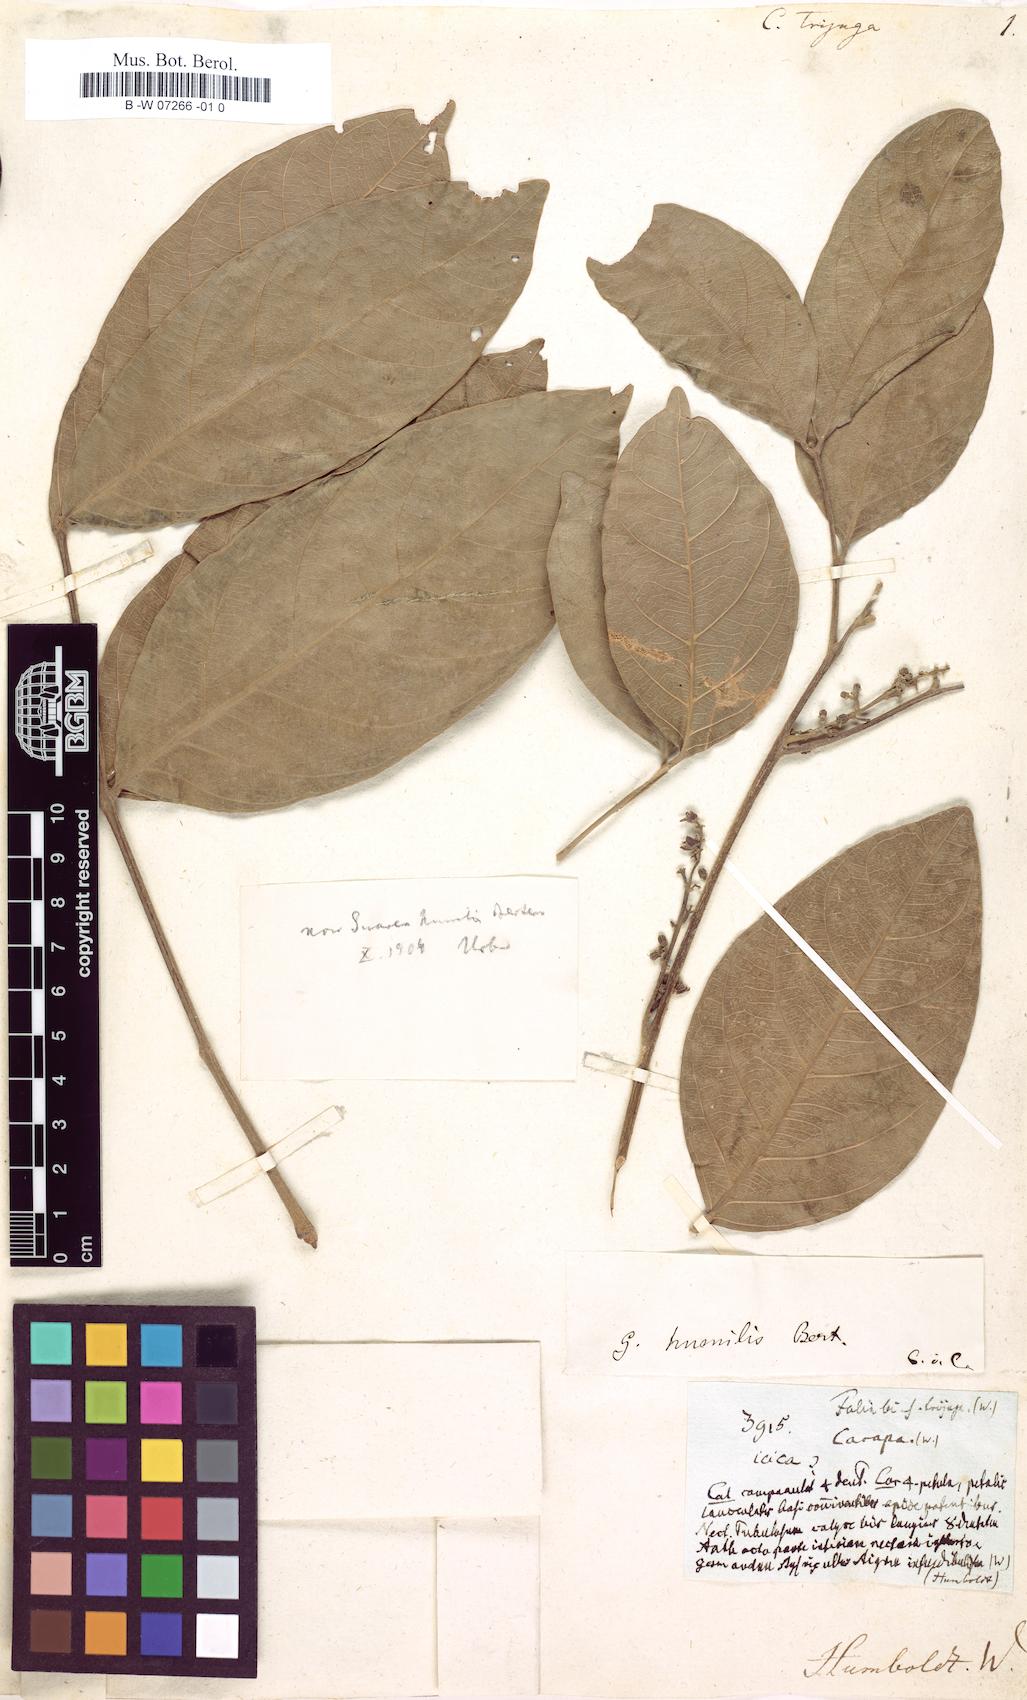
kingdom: Plantae
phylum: Tracheophyta
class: Magnoliopsida
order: Sapindales
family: Meliaceae
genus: Guarea
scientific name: Guarea glabra
